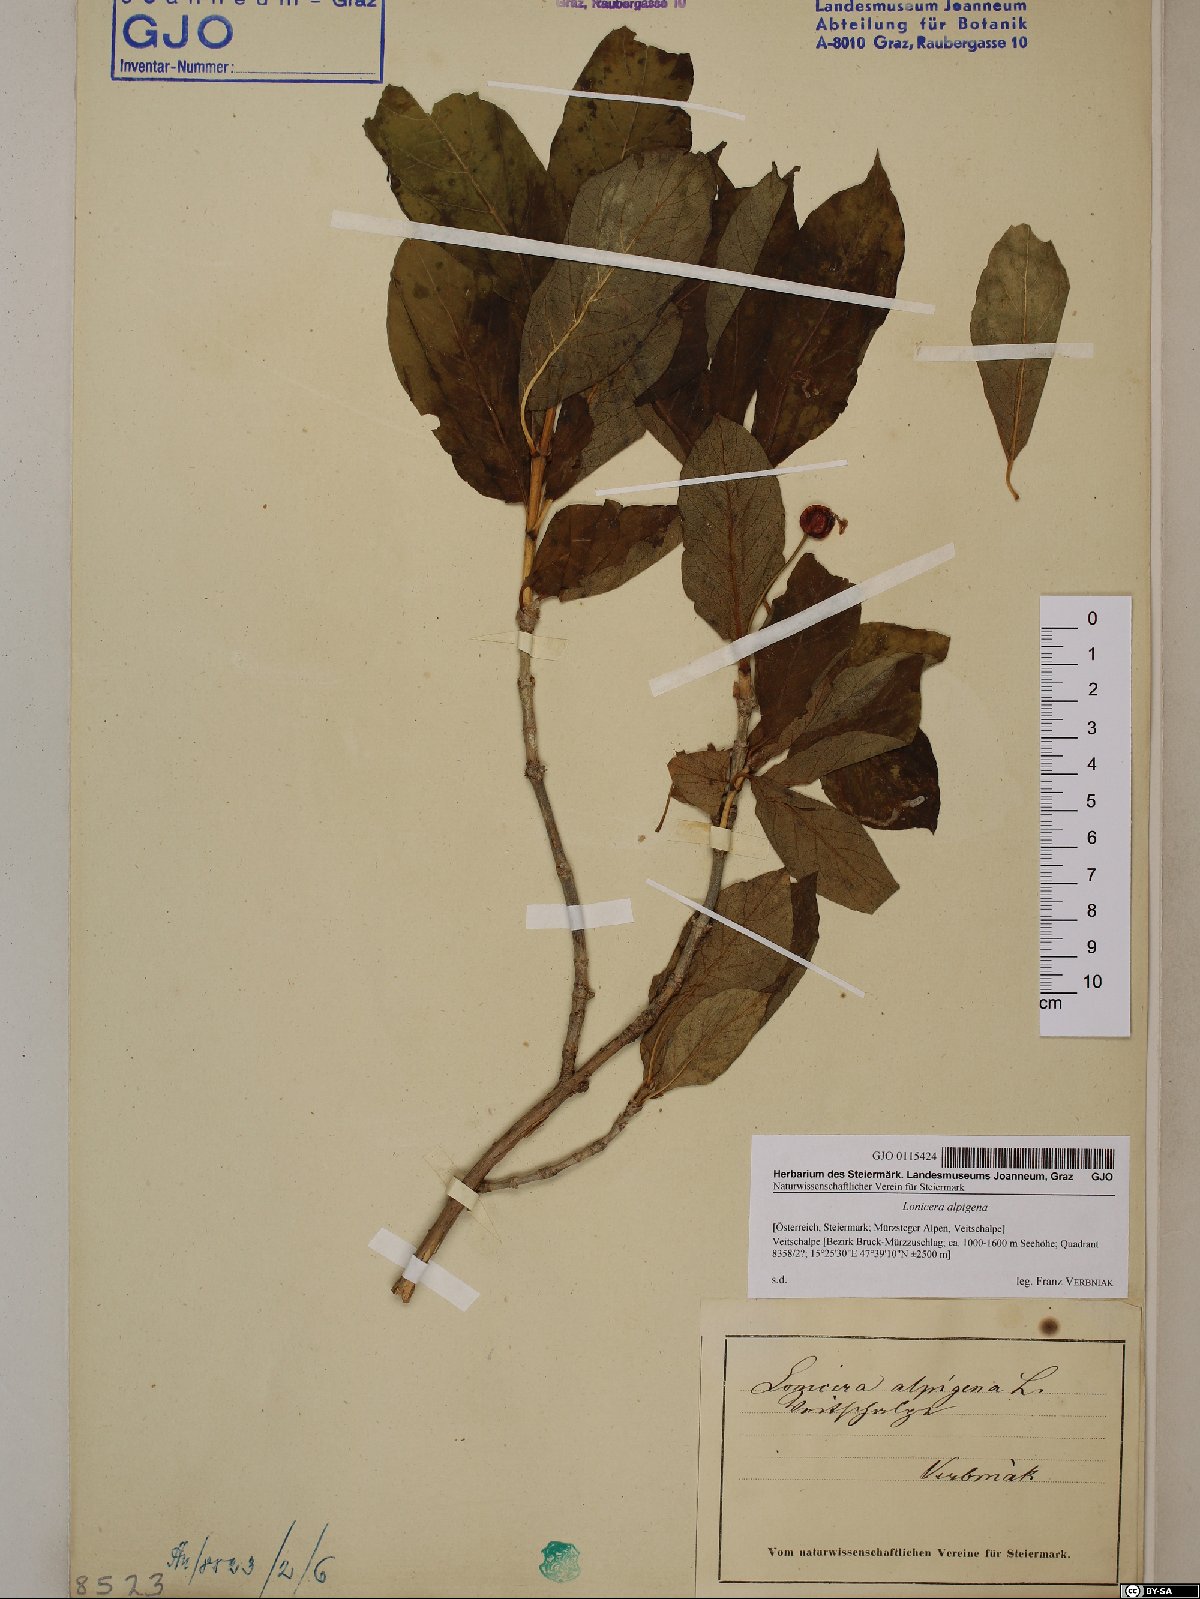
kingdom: Plantae
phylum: Tracheophyta
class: Magnoliopsida
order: Dipsacales
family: Caprifoliaceae
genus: Lonicera
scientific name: Lonicera alpigena
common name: Alpine honeysuckle
